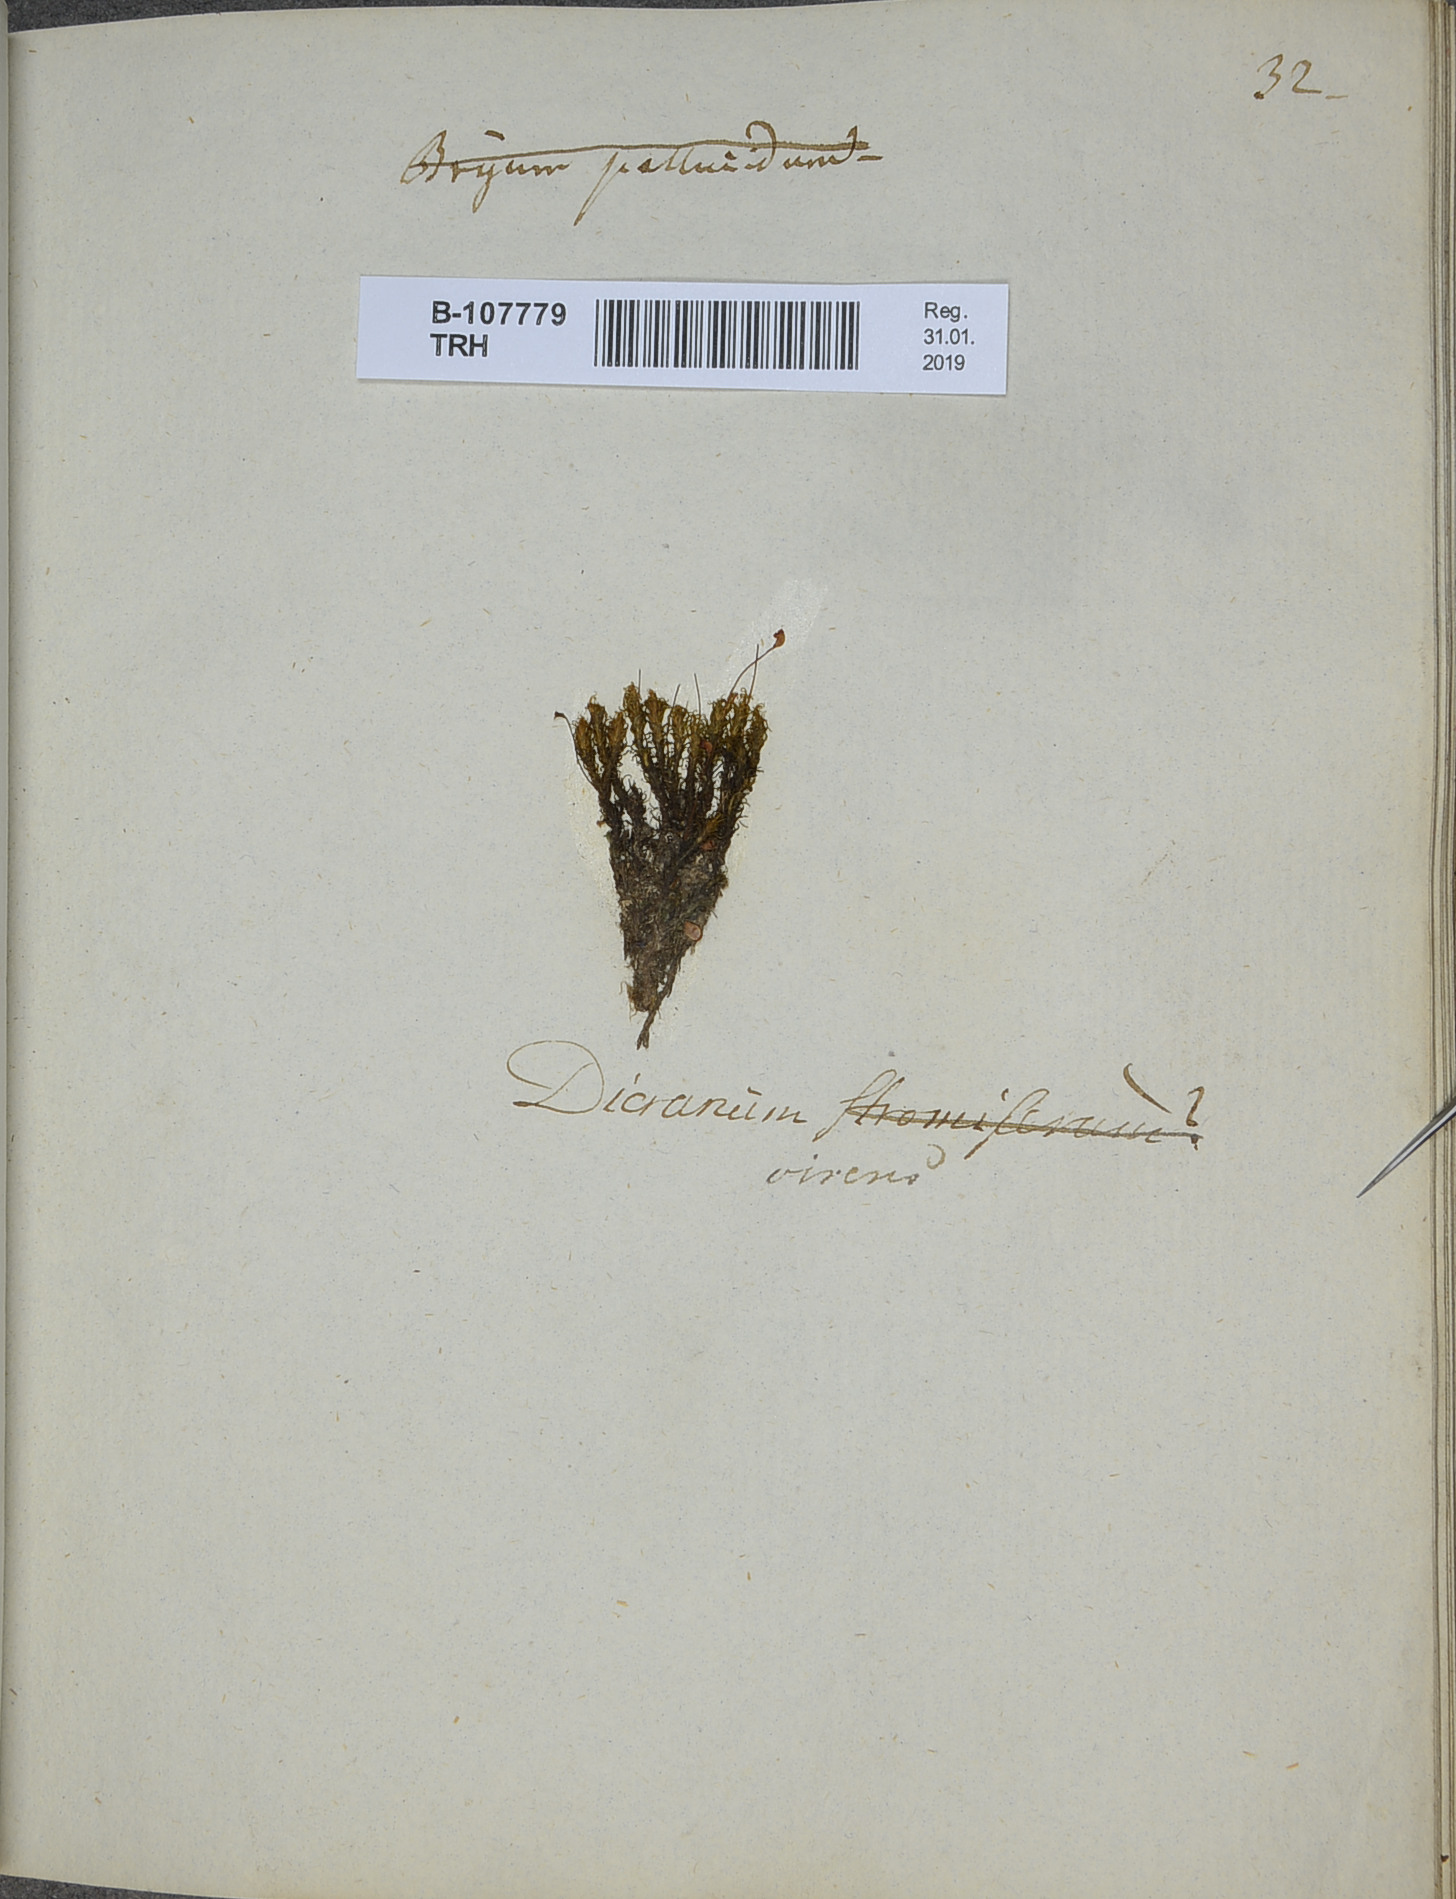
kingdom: Plantae
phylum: Bryophyta
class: Bryopsida
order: Dicranales
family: Rhabdoweisiaceae
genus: Oncophorus
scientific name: Oncophorus virens
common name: Green spur moss
